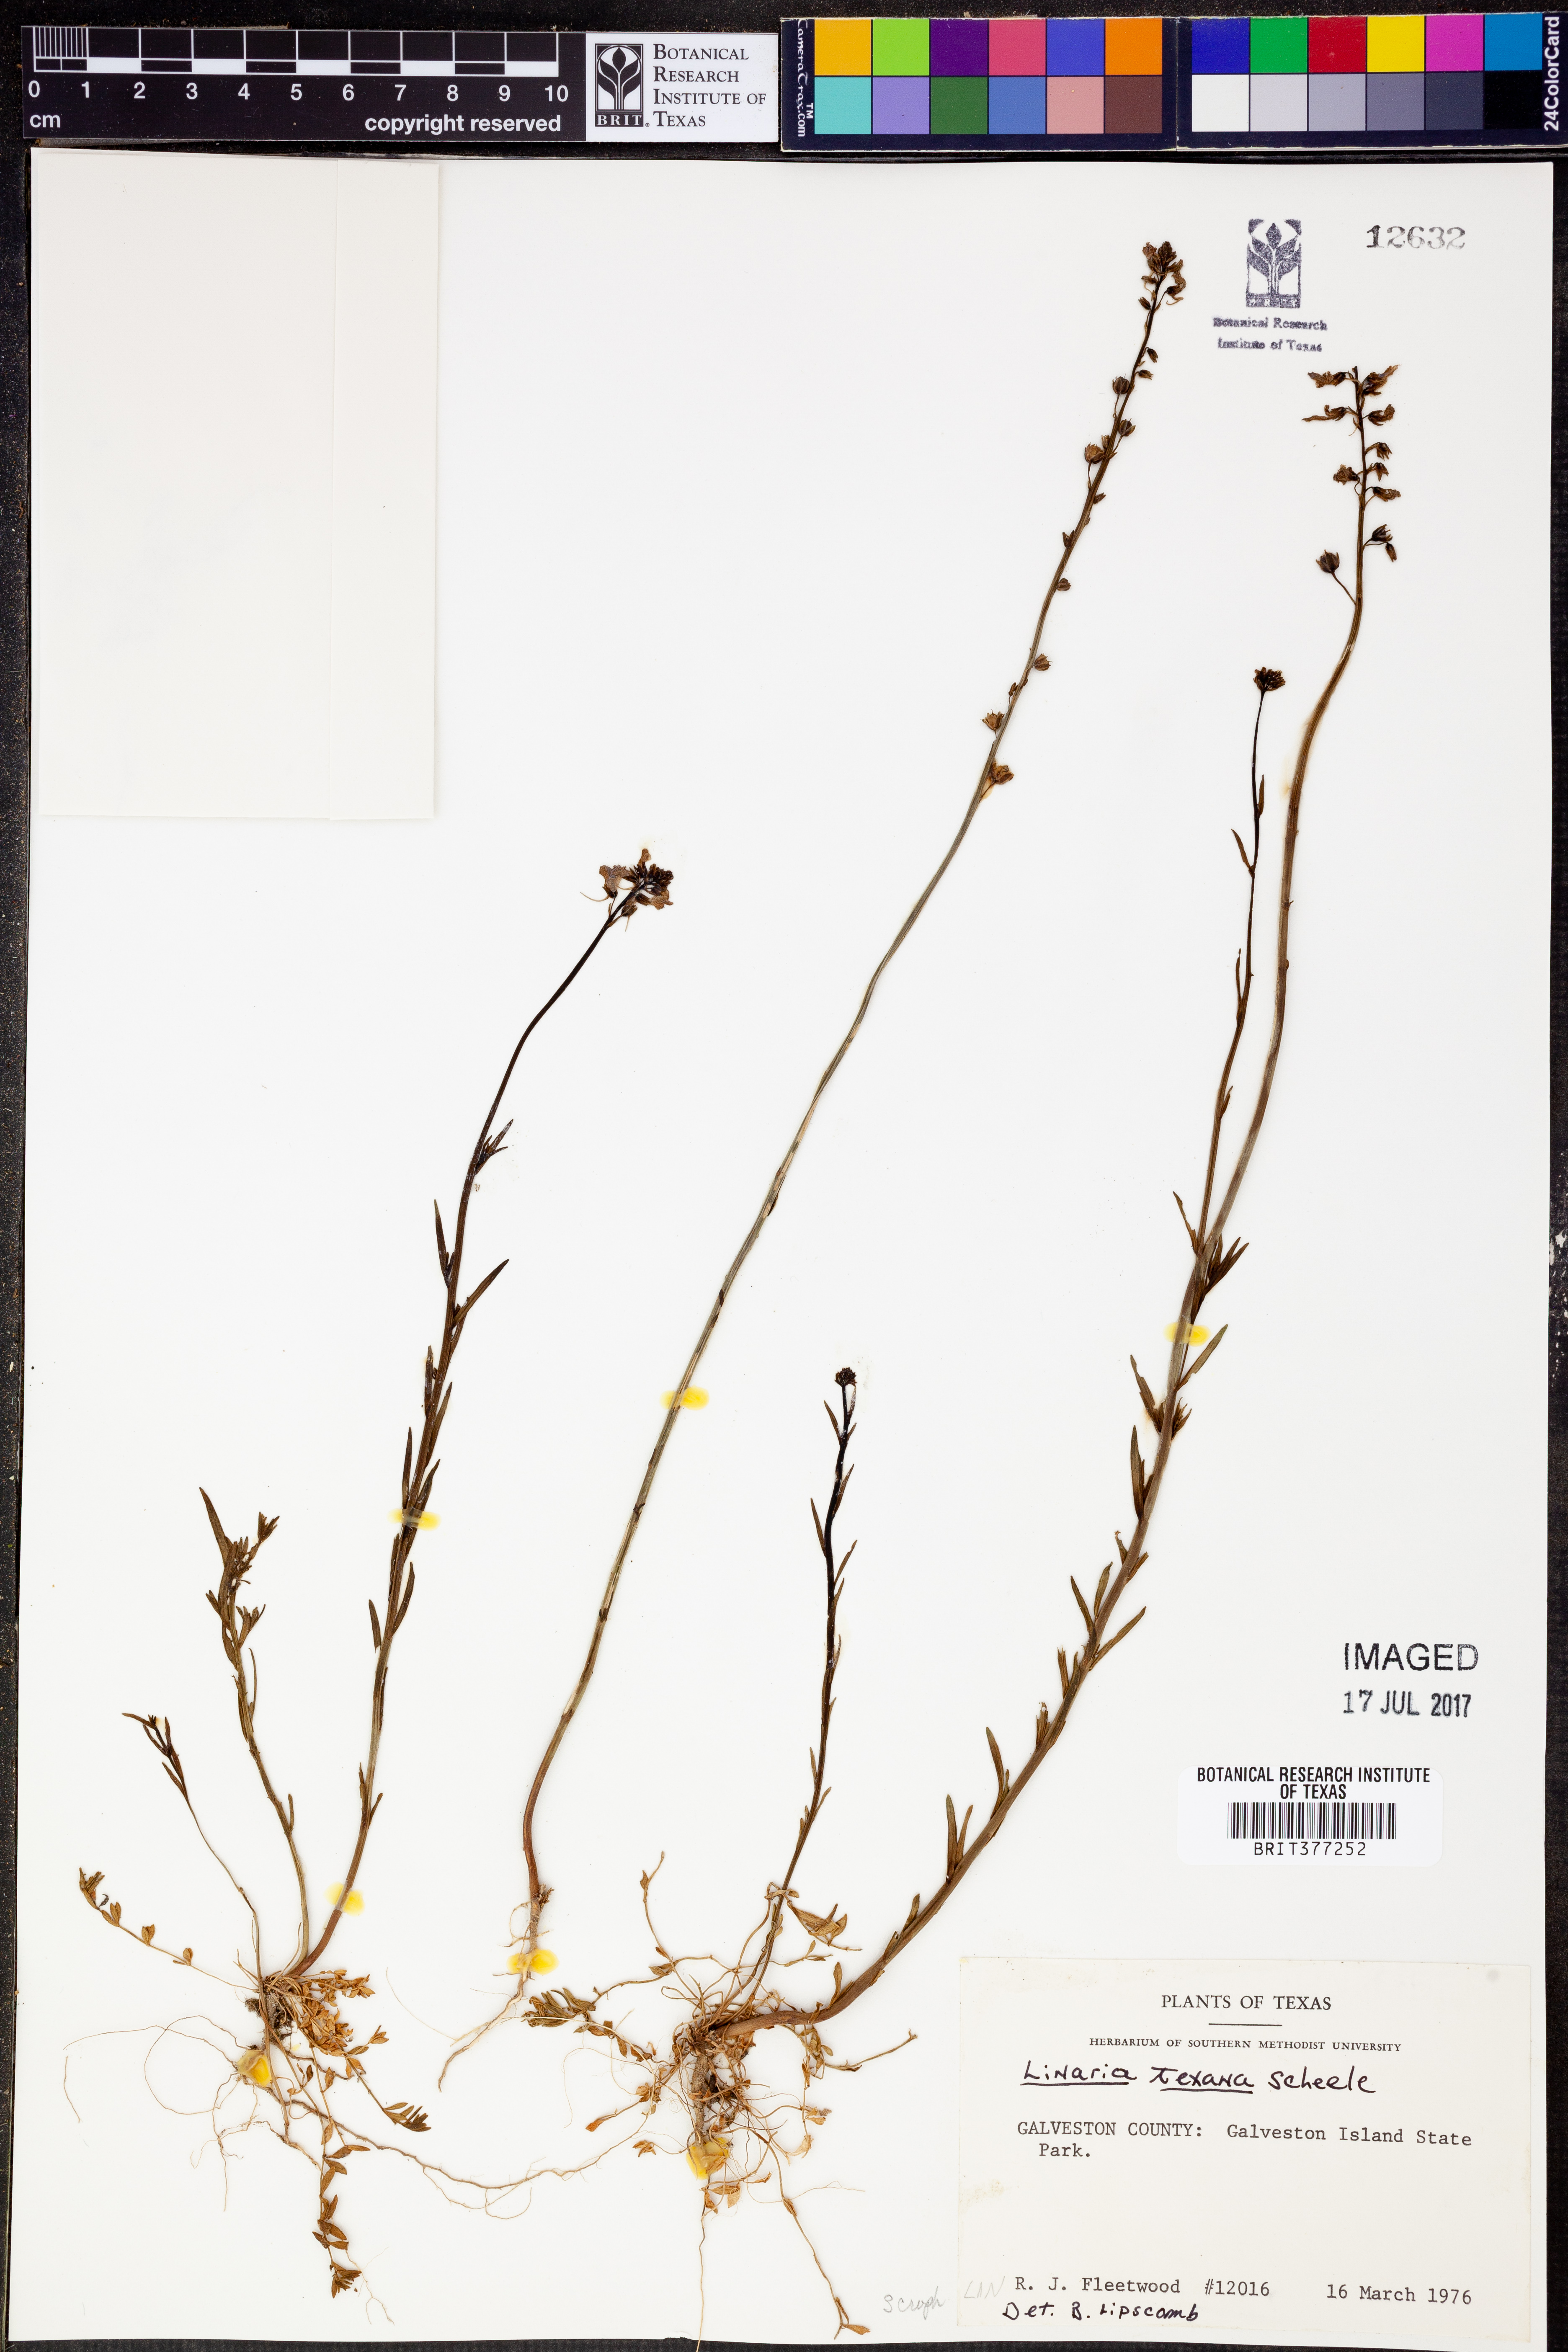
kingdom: Plantae
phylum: Tracheophyta
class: Magnoliopsida
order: Lamiales
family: Plantaginaceae
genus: Nuttallanthus
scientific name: Nuttallanthus texanus
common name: Texas toadflax
